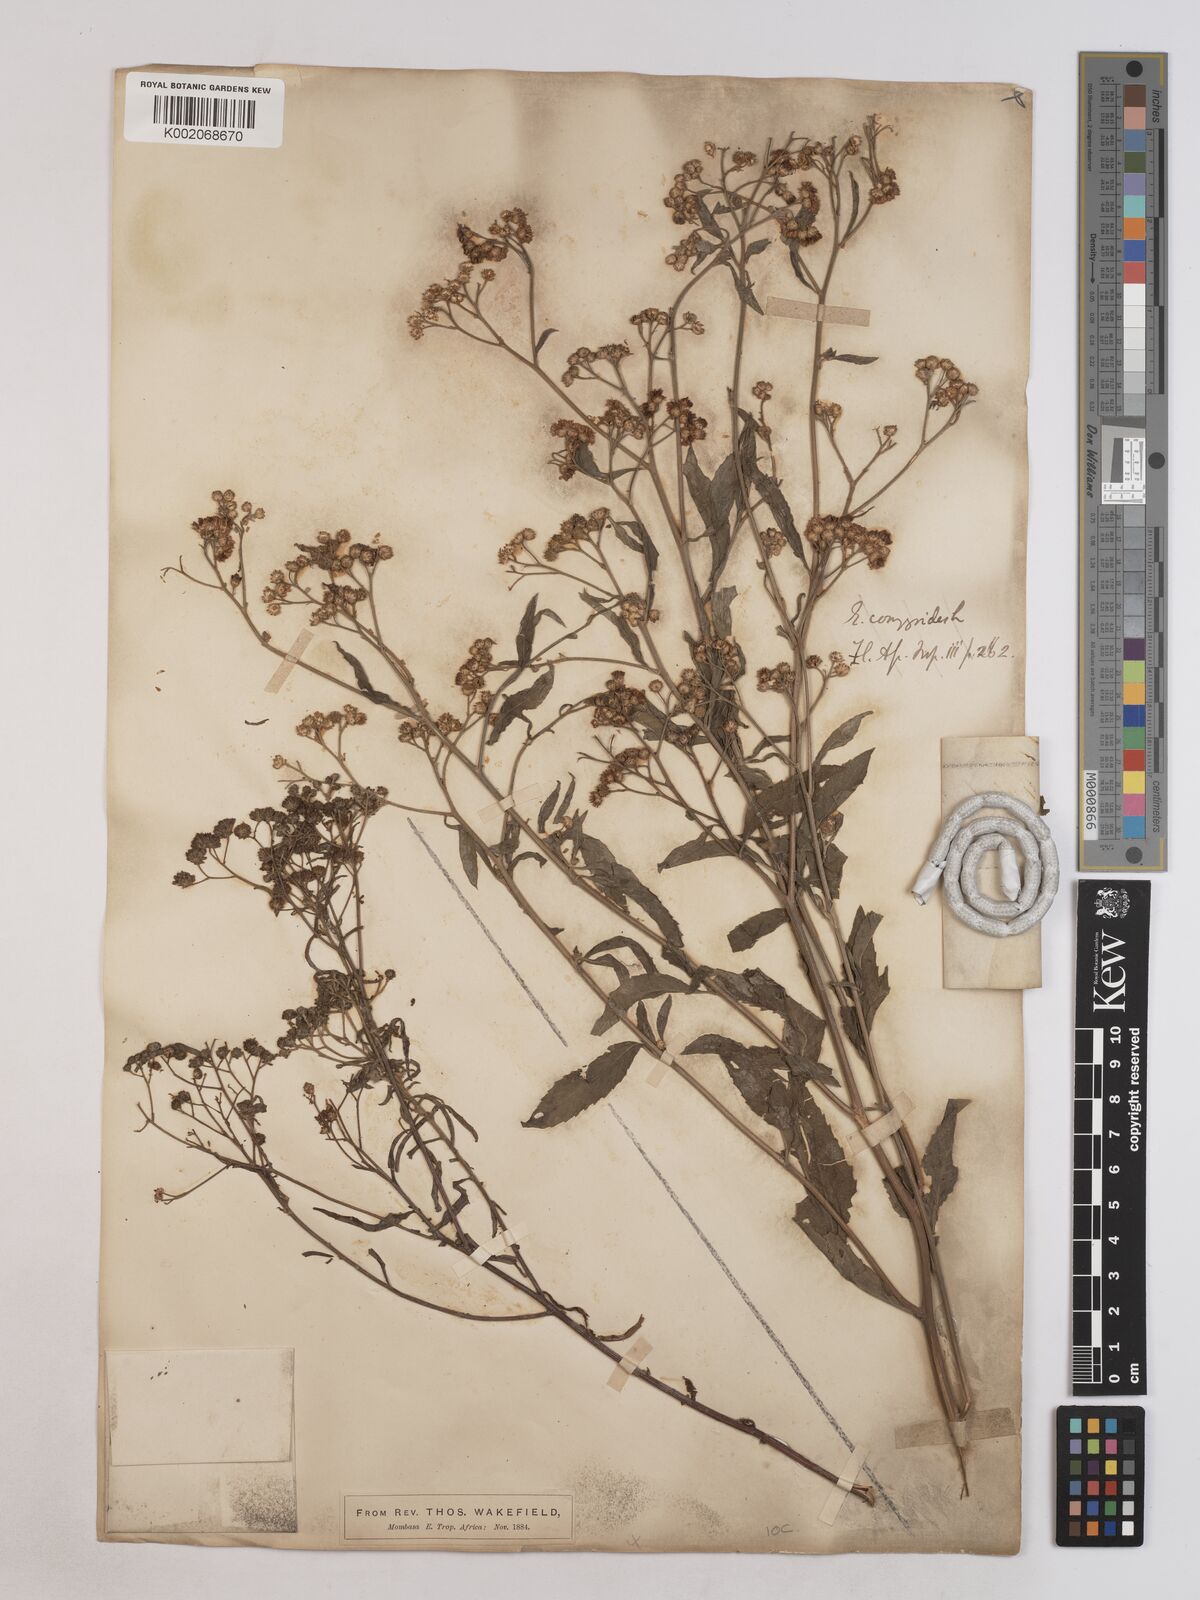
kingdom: Plantae
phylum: Tracheophyta
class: Magnoliopsida
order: Asterales
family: Asteraceae
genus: Ethulia
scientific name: Ethulia gracilis
